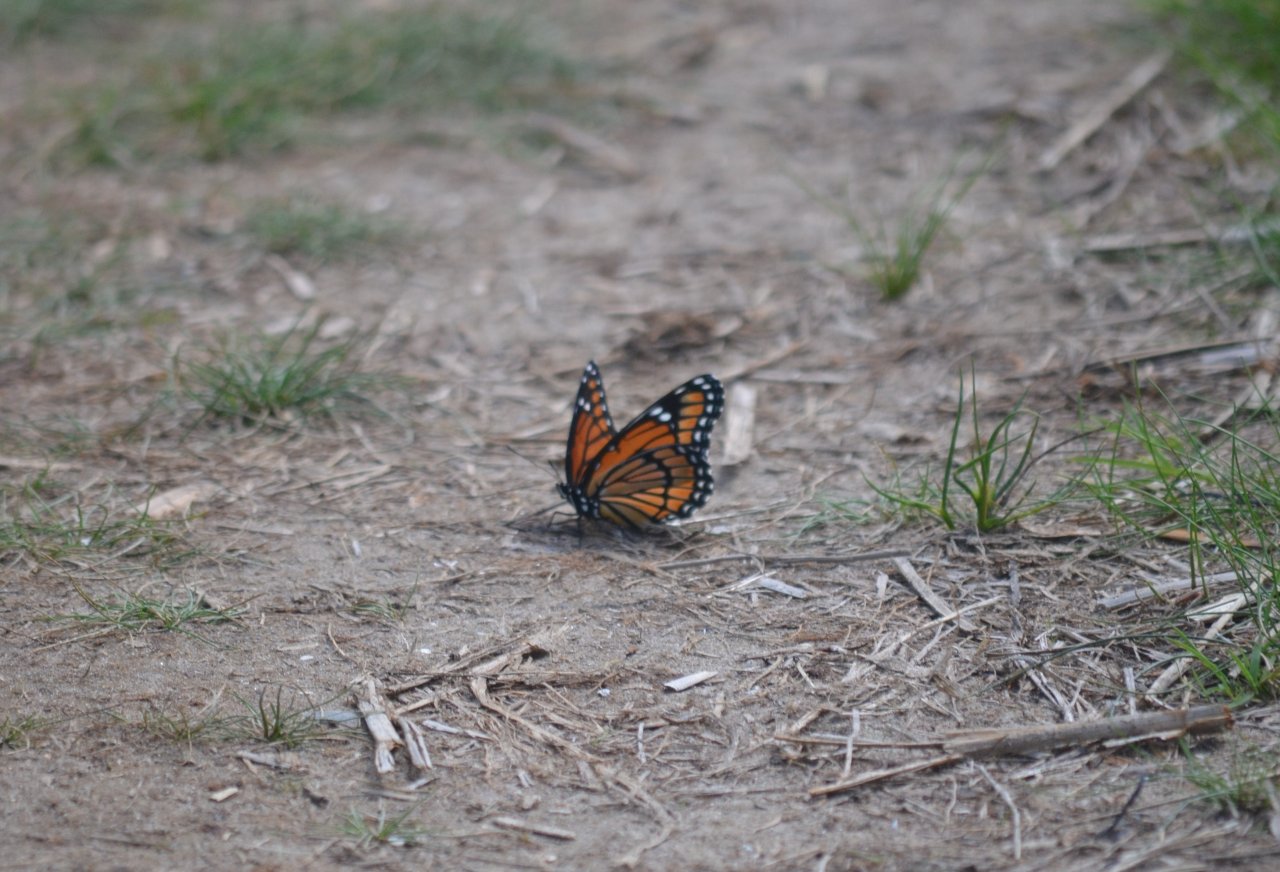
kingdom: Animalia
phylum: Arthropoda
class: Insecta
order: Lepidoptera
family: Nymphalidae
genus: Limenitis
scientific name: Limenitis archippus
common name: Viceroy
